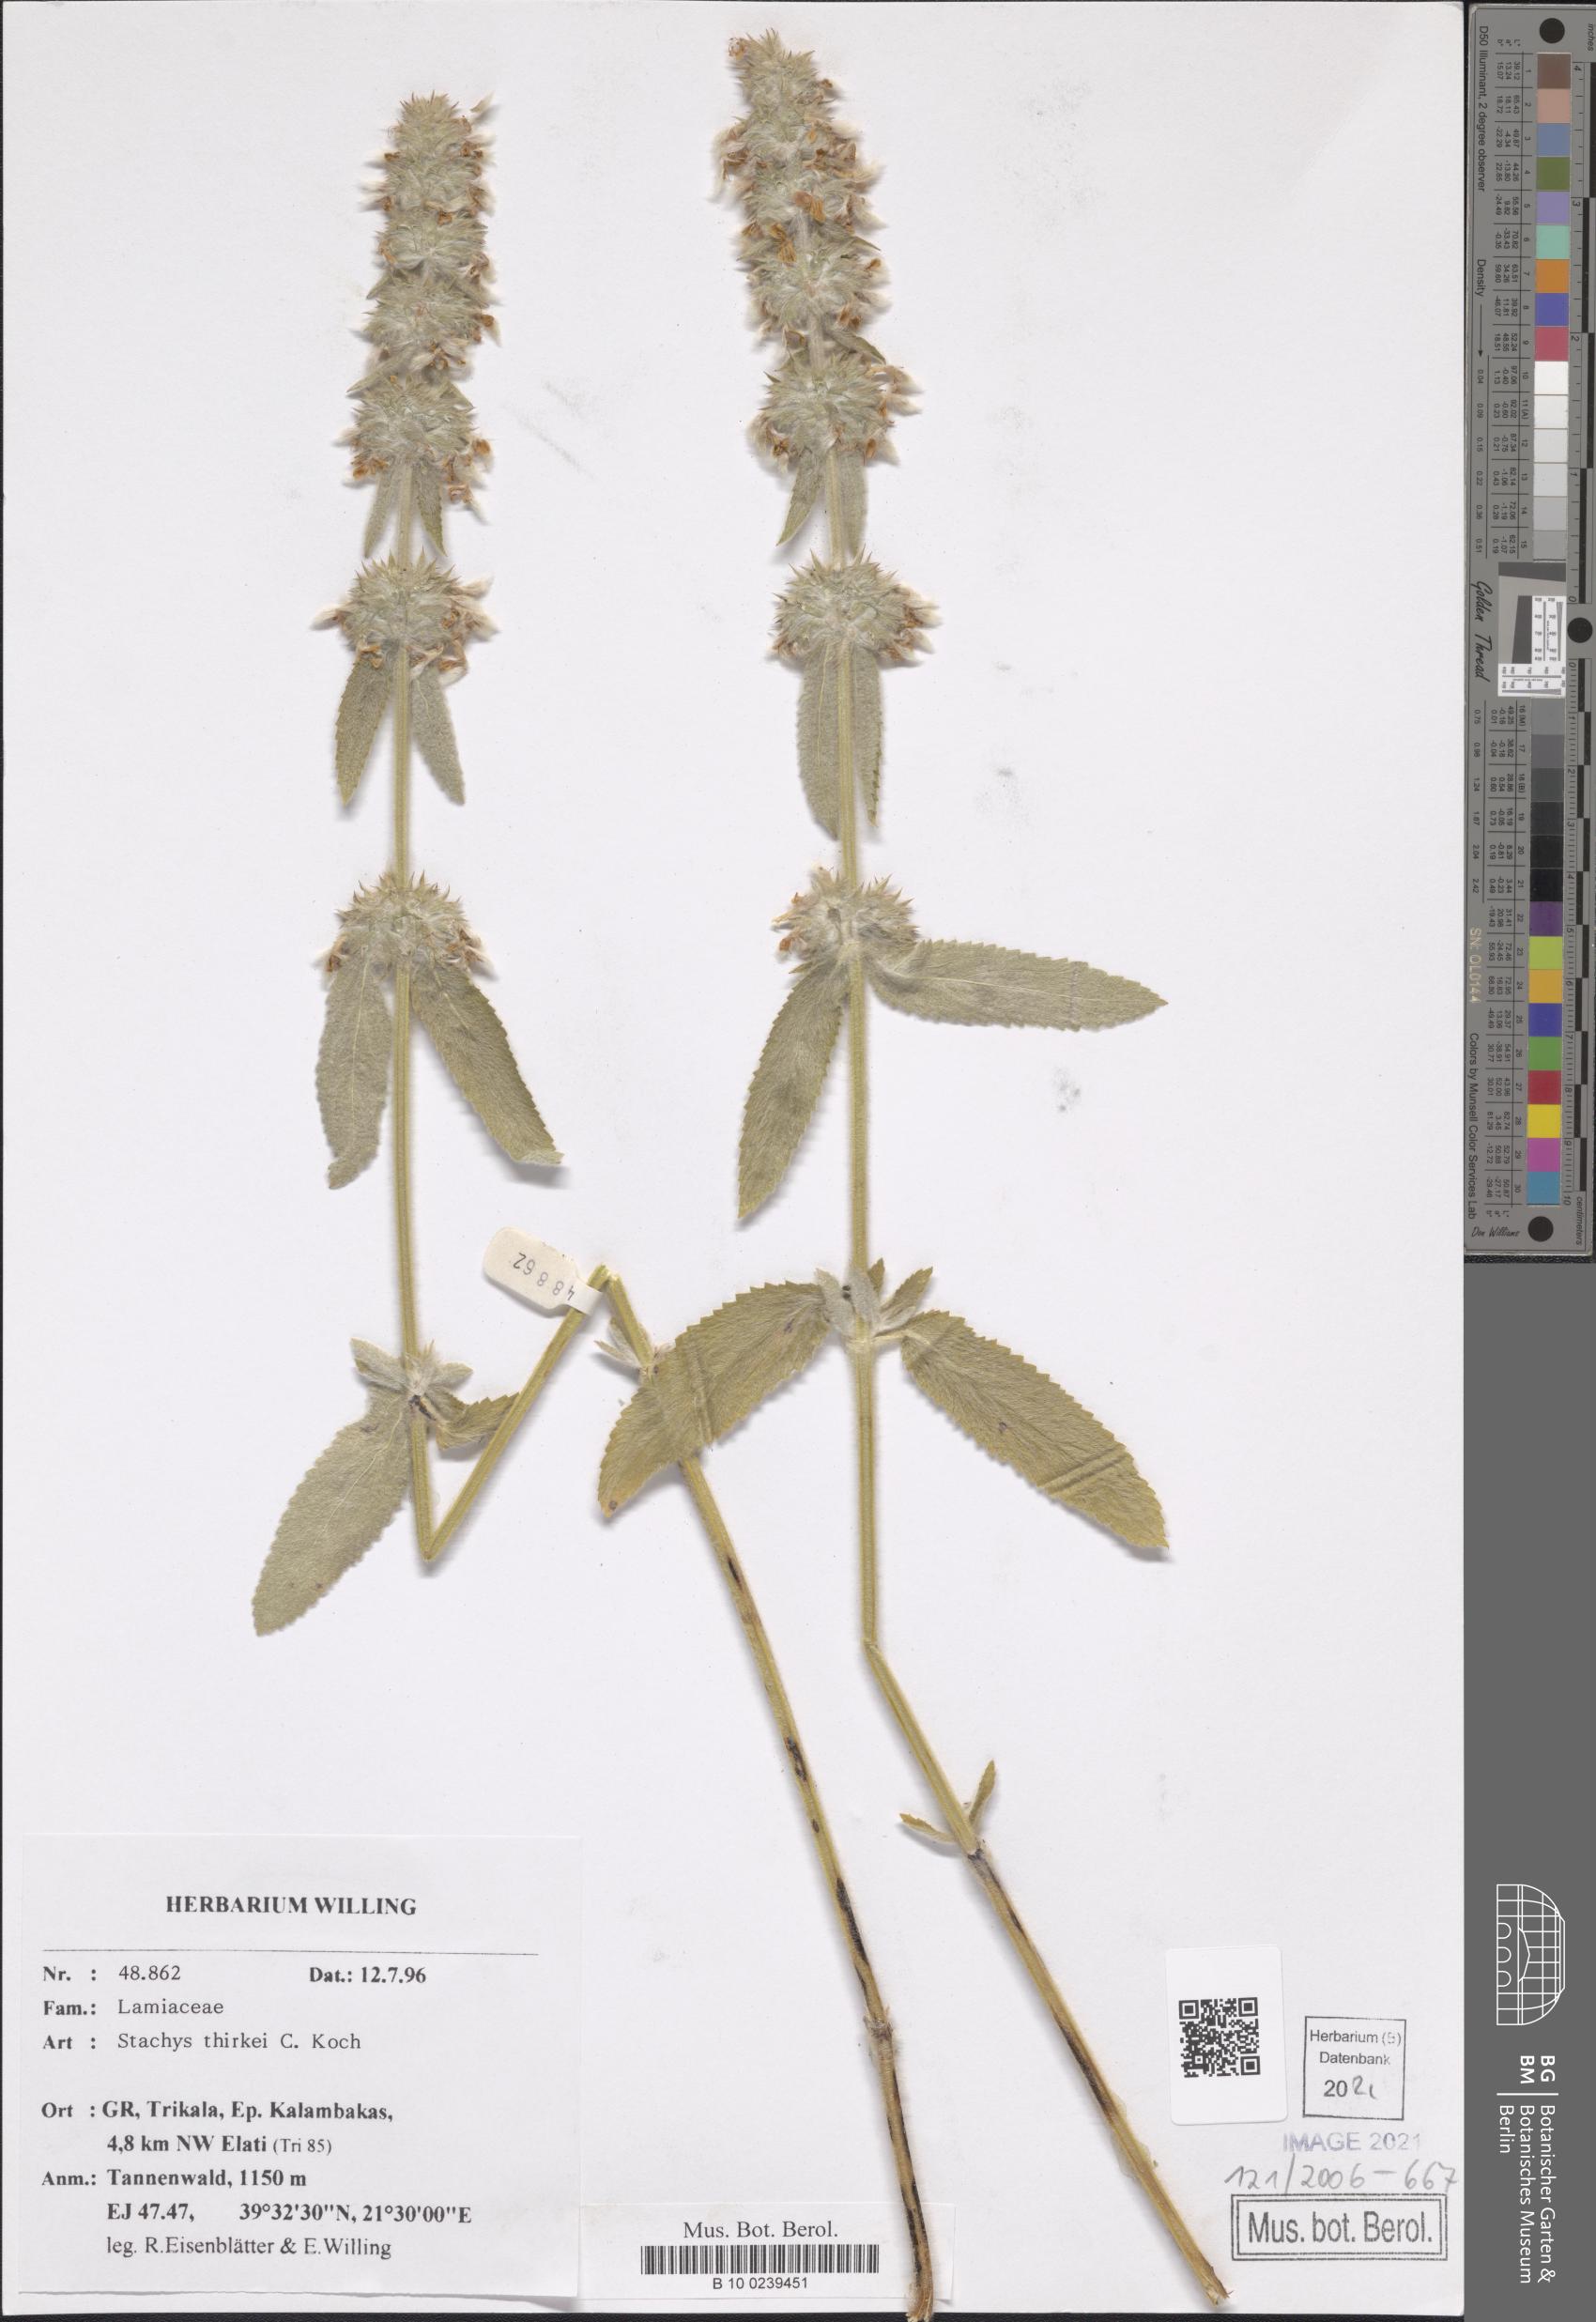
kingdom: Plantae
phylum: Tracheophyta
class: Magnoliopsida
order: Lamiales
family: Lamiaceae
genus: Stachys
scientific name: Stachys thirkei
